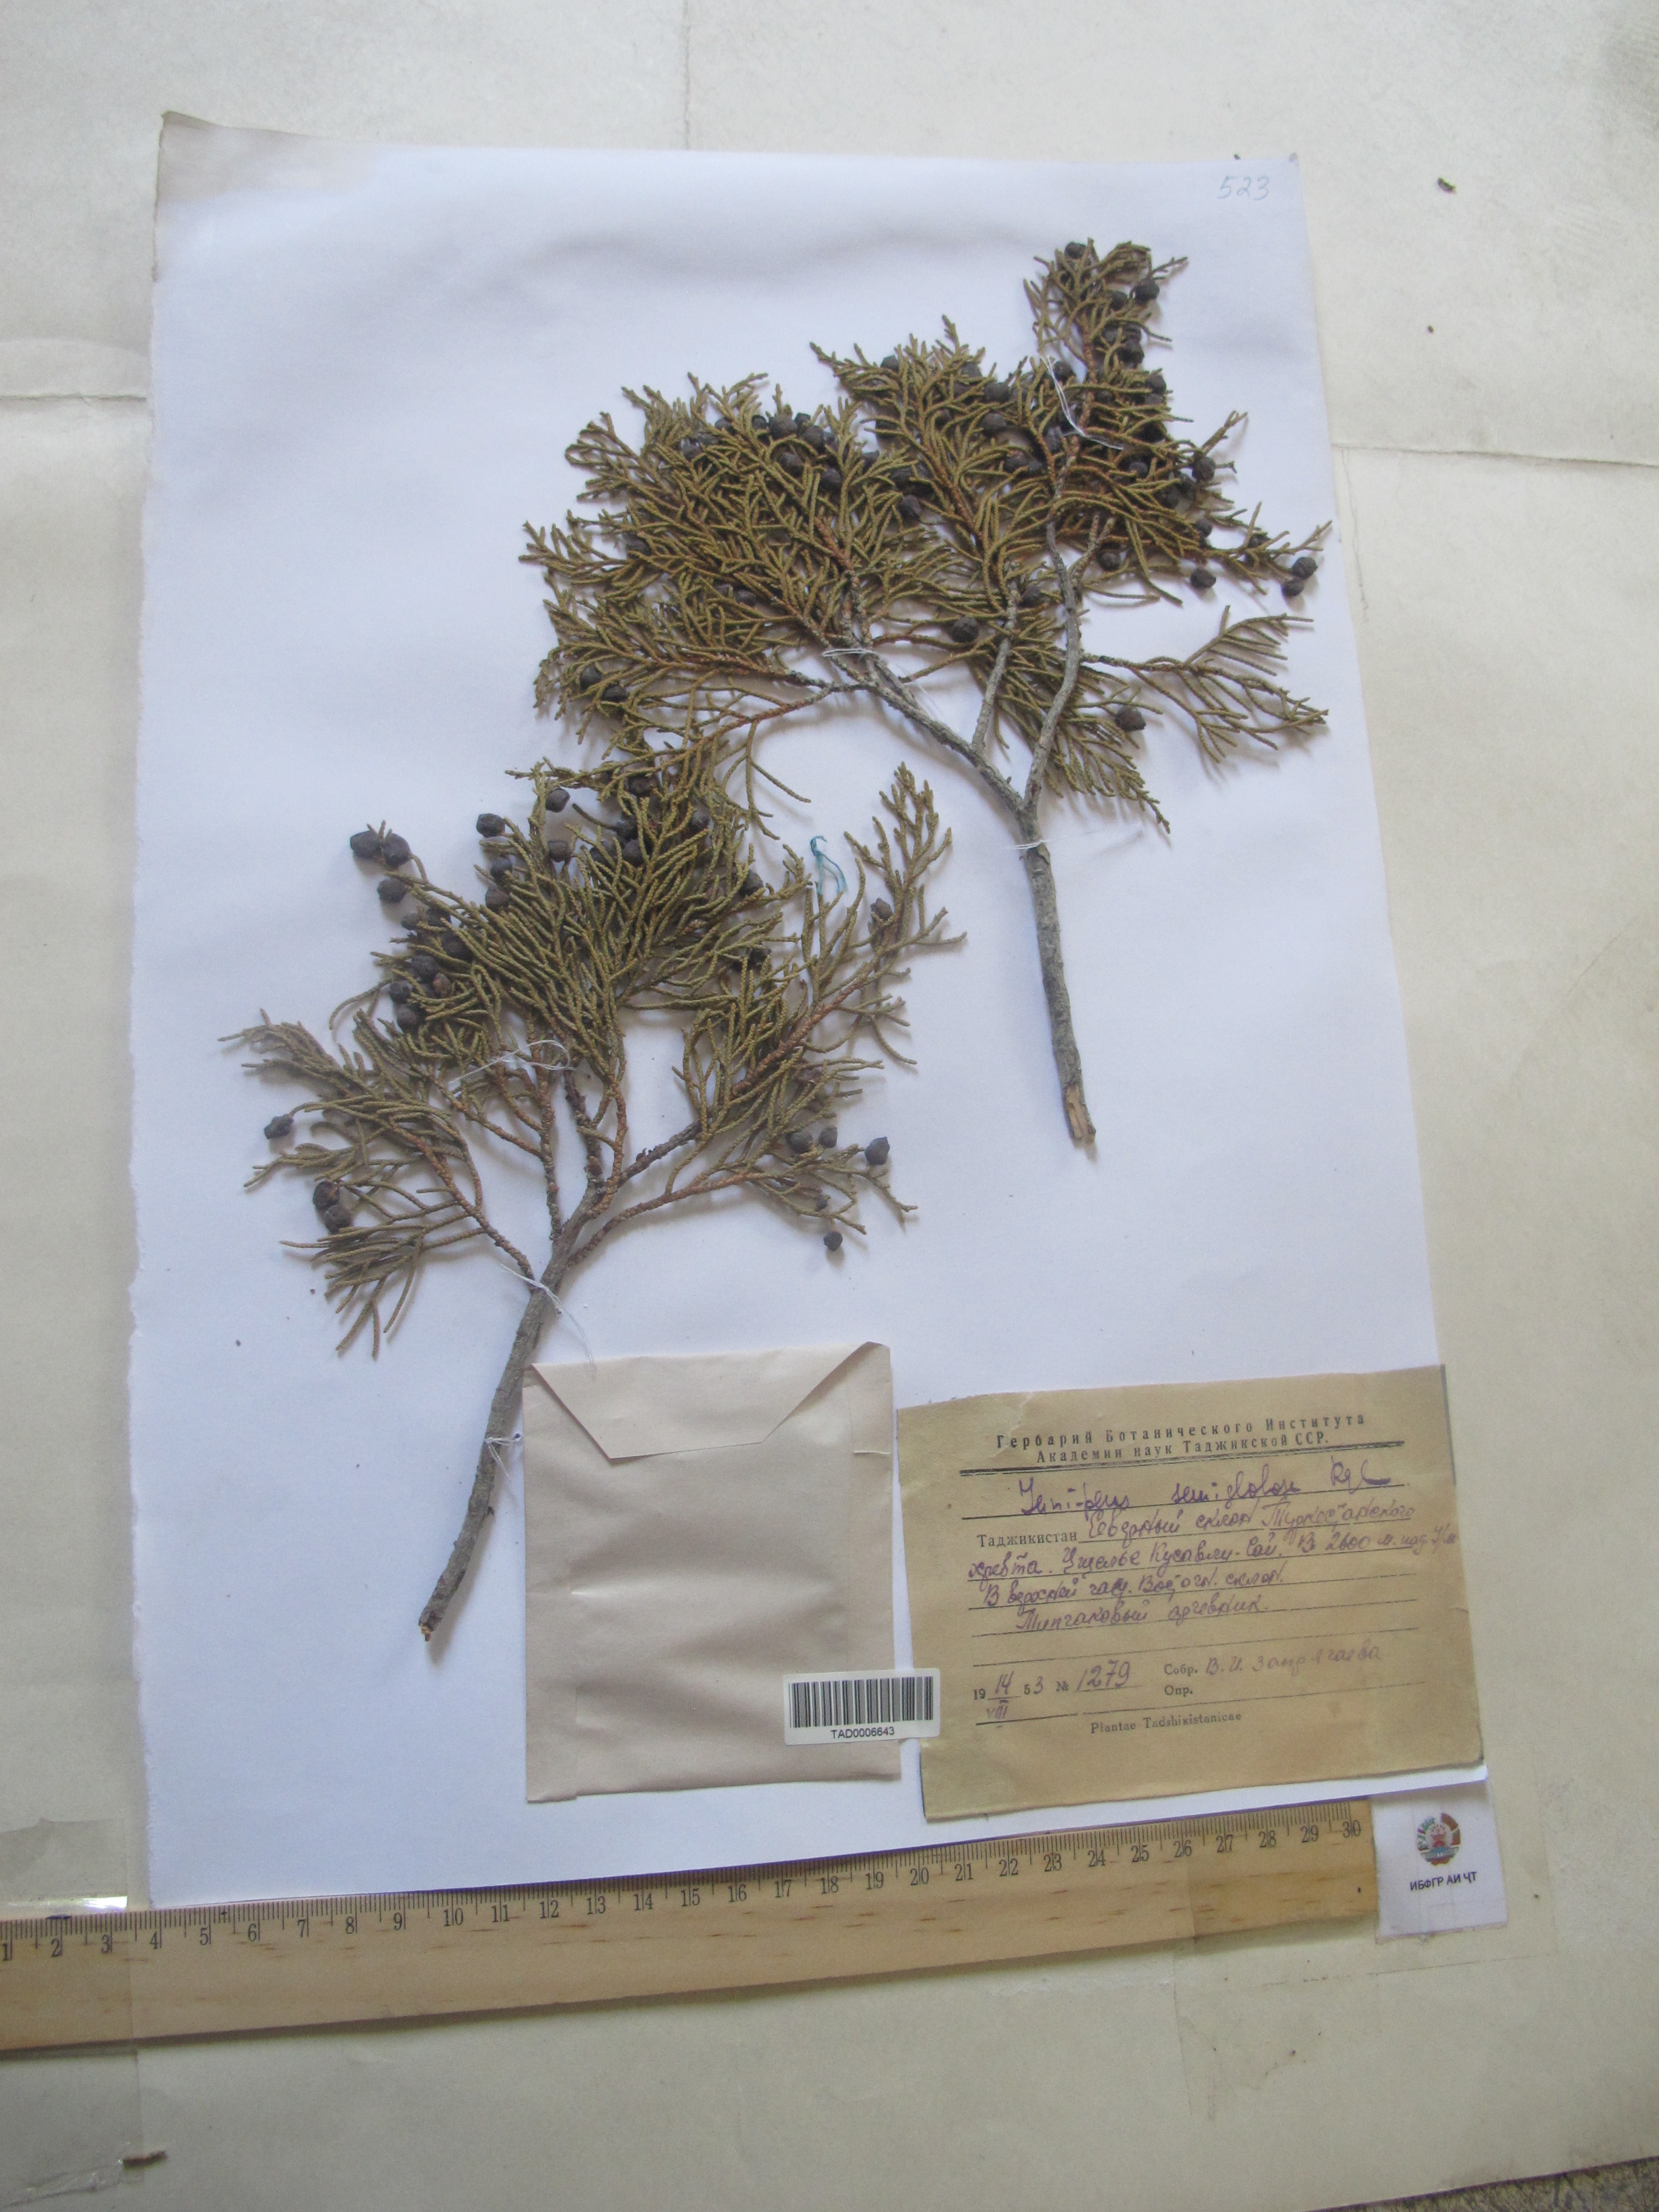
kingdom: Plantae
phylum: Tracheophyta
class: Pinopsida
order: Pinales
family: Cupressaceae
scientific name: Cupressaceae
